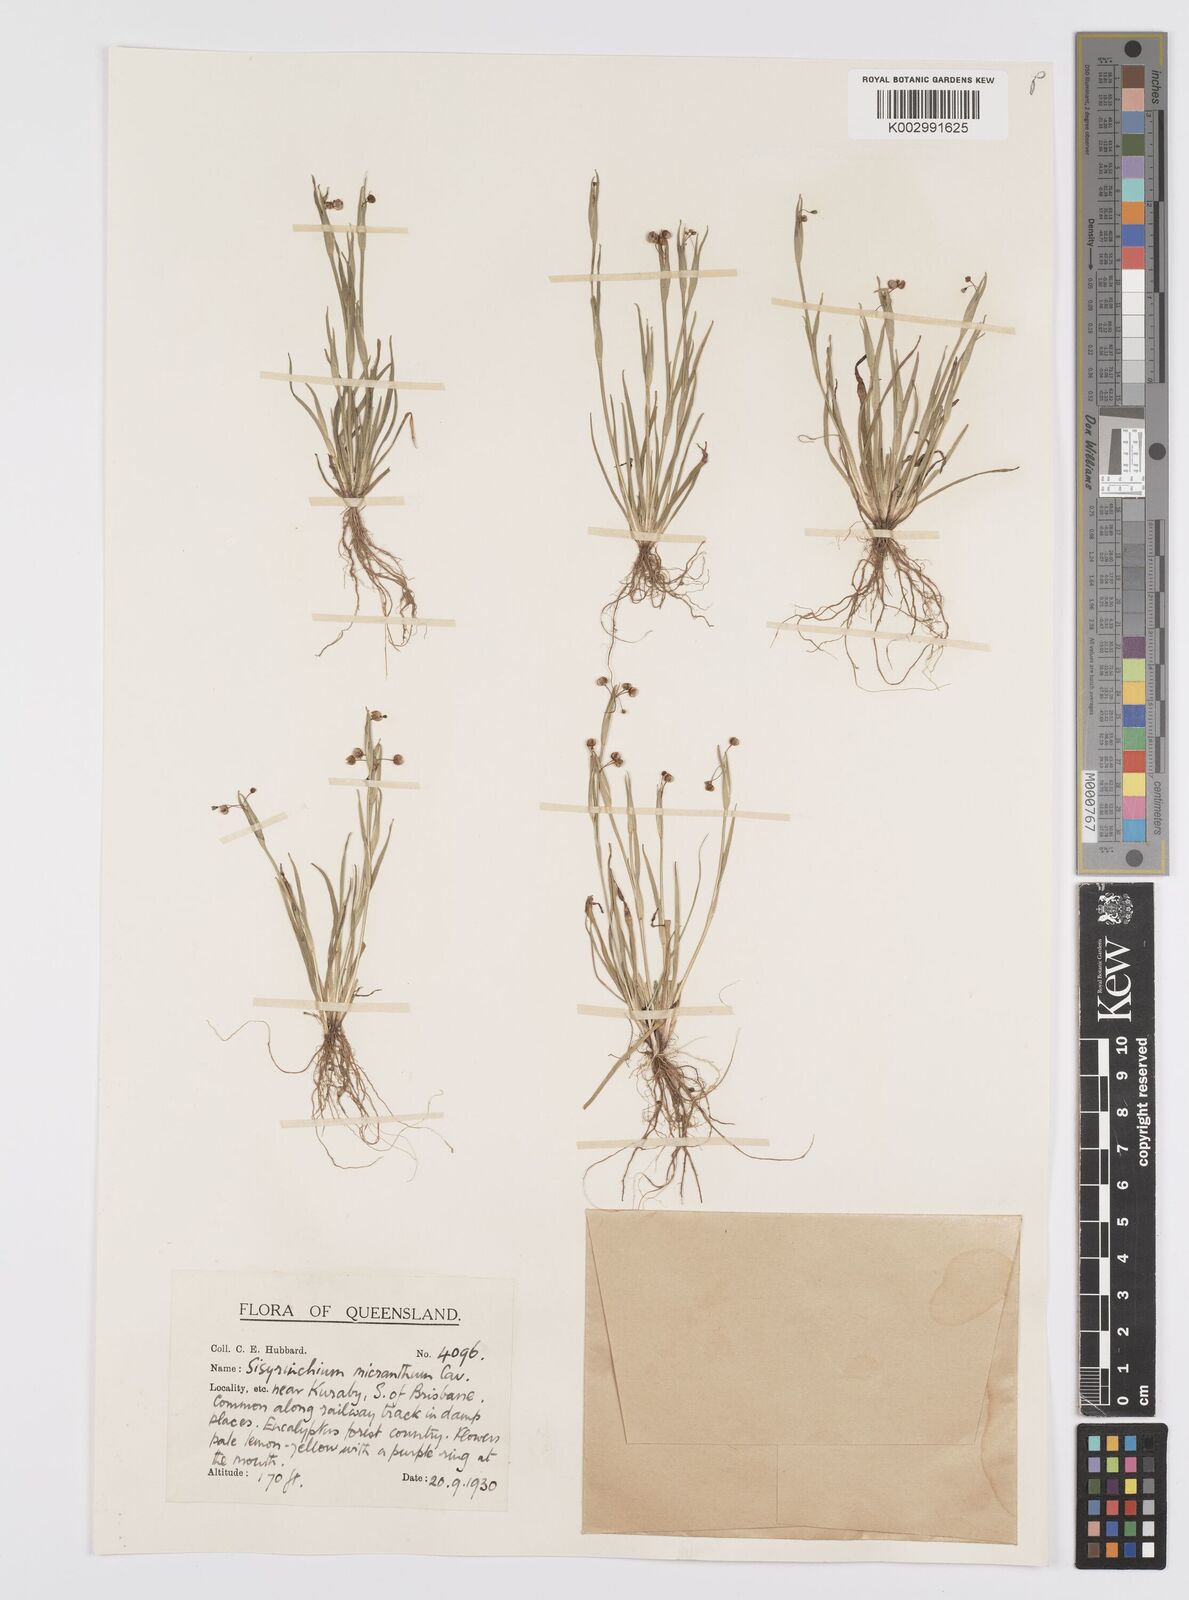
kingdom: Plantae
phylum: Tracheophyta
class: Liliopsida
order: Asparagales
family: Iridaceae
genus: Sisyrinchium
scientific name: Sisyrinchium micranthum
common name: Bermuda pigroot
